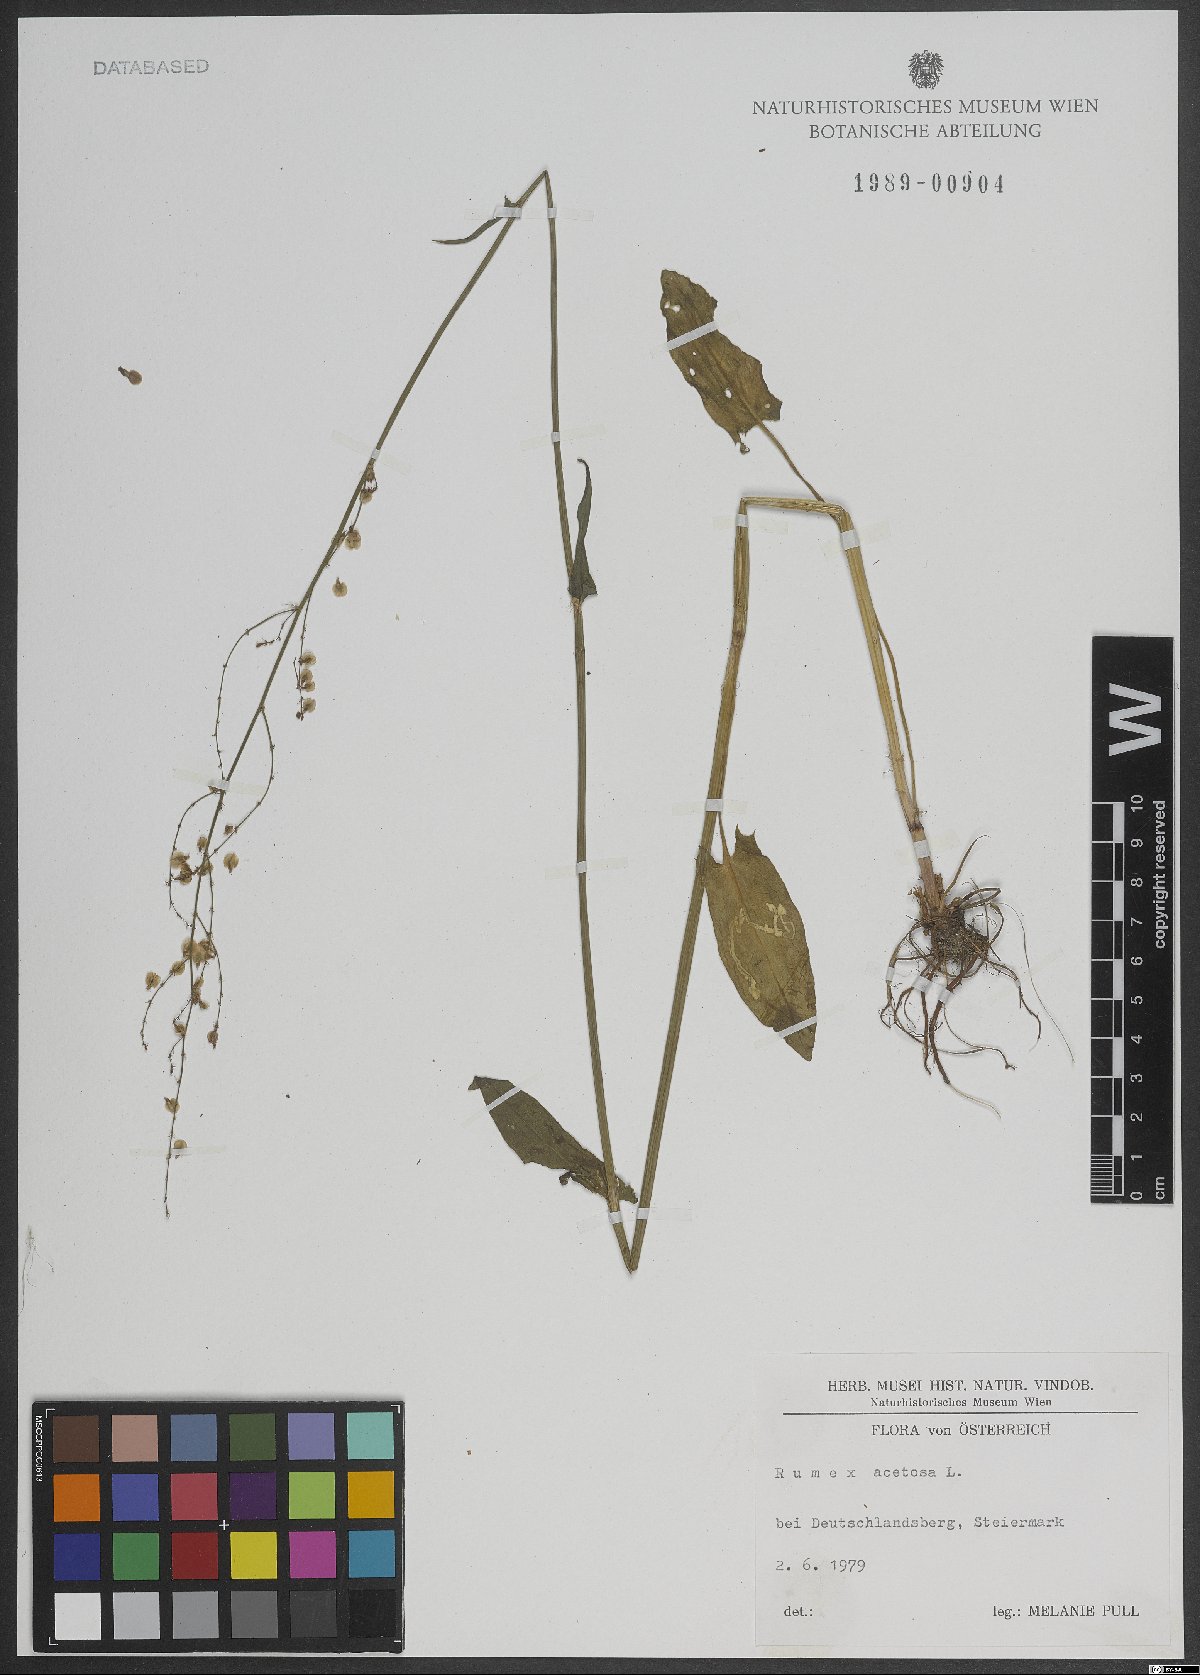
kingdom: Plantae
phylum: Tracheophyta
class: Magnoliopsida
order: Caryophyllales
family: Polygonaceae
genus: Rumex
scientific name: Rumex acetosa
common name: Garden sorrel
